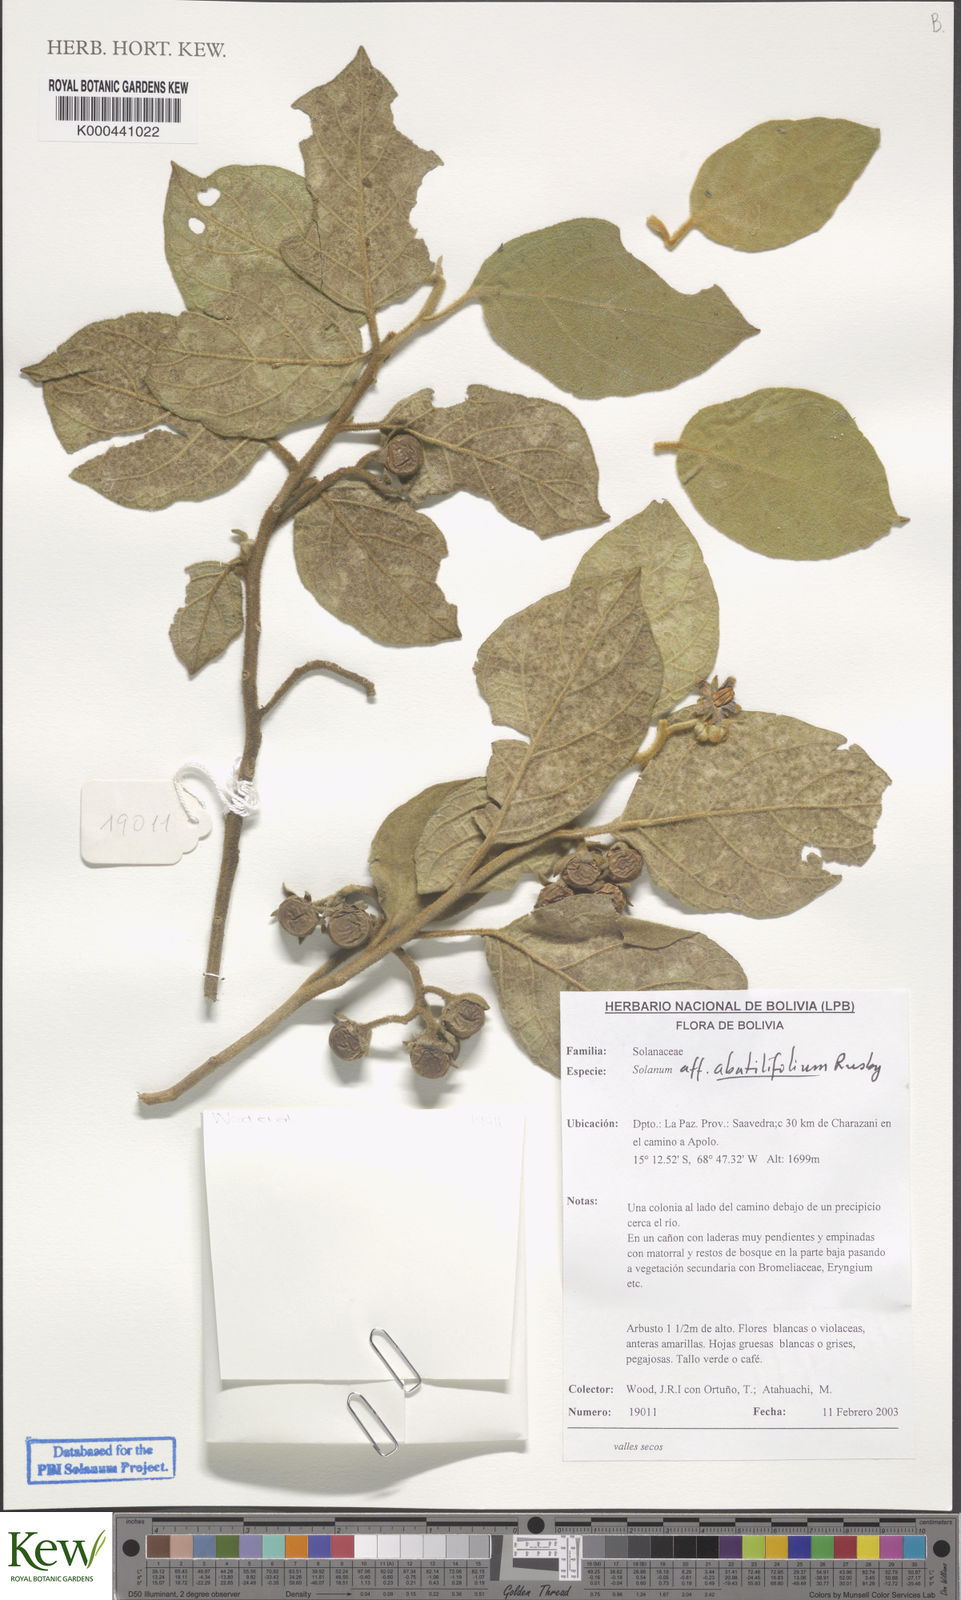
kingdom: Plantae
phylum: Tracheophyta
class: Magnoliopsida
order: Solanales
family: Solanaceae
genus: Solanum
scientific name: Solanum abutilifolium
